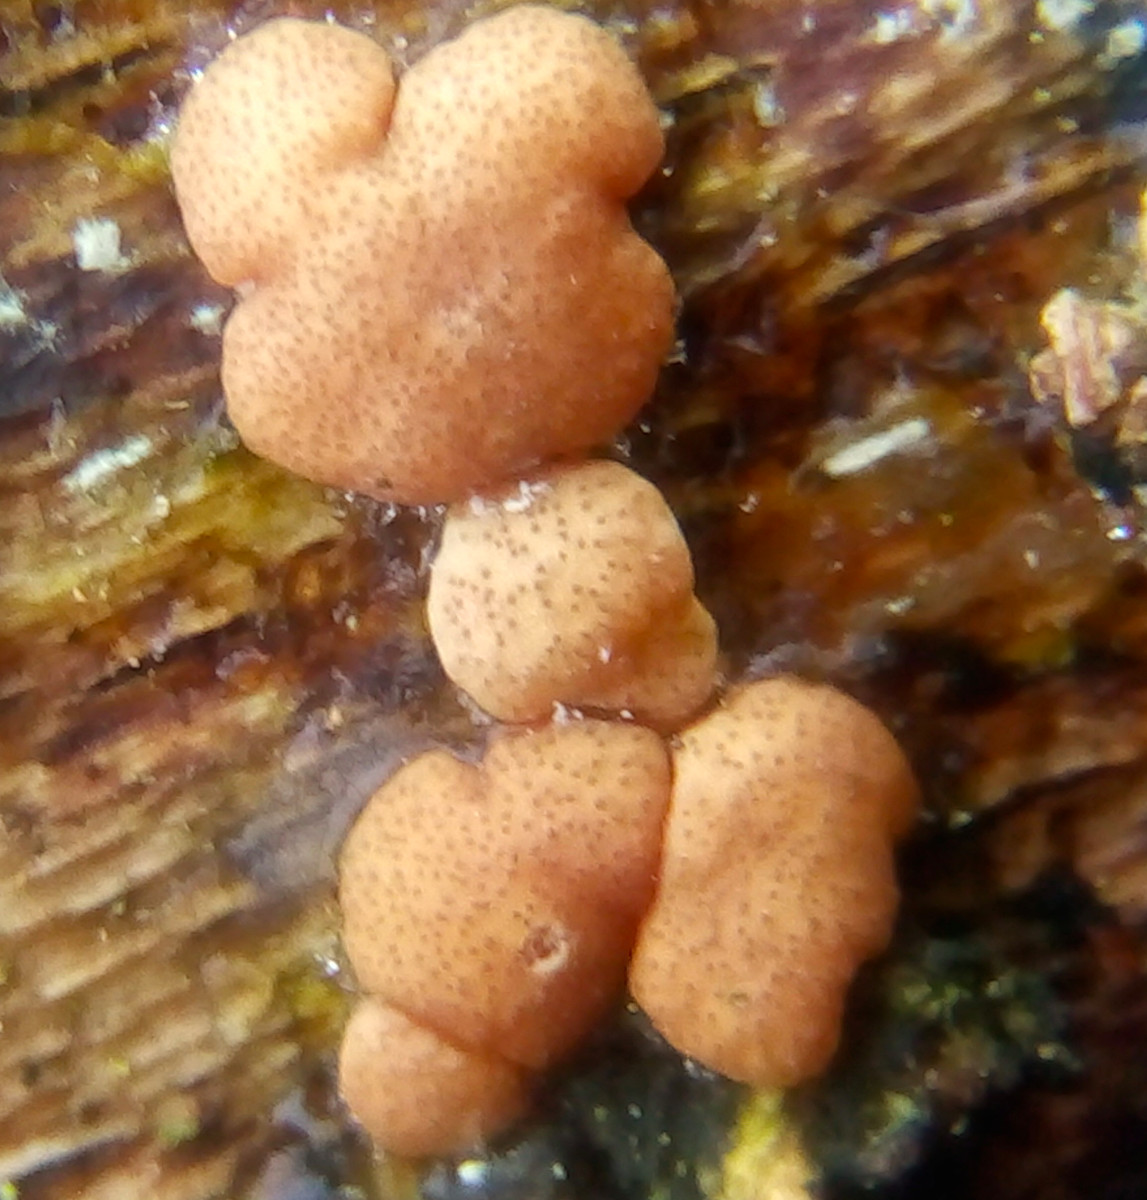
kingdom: Fungi
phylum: Ascomycota
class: Sordariomycetes
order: Hypocreales
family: Hypocreaceae
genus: Trichoderma
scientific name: Trichoderma europaeum
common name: rosabrun kødkerne
